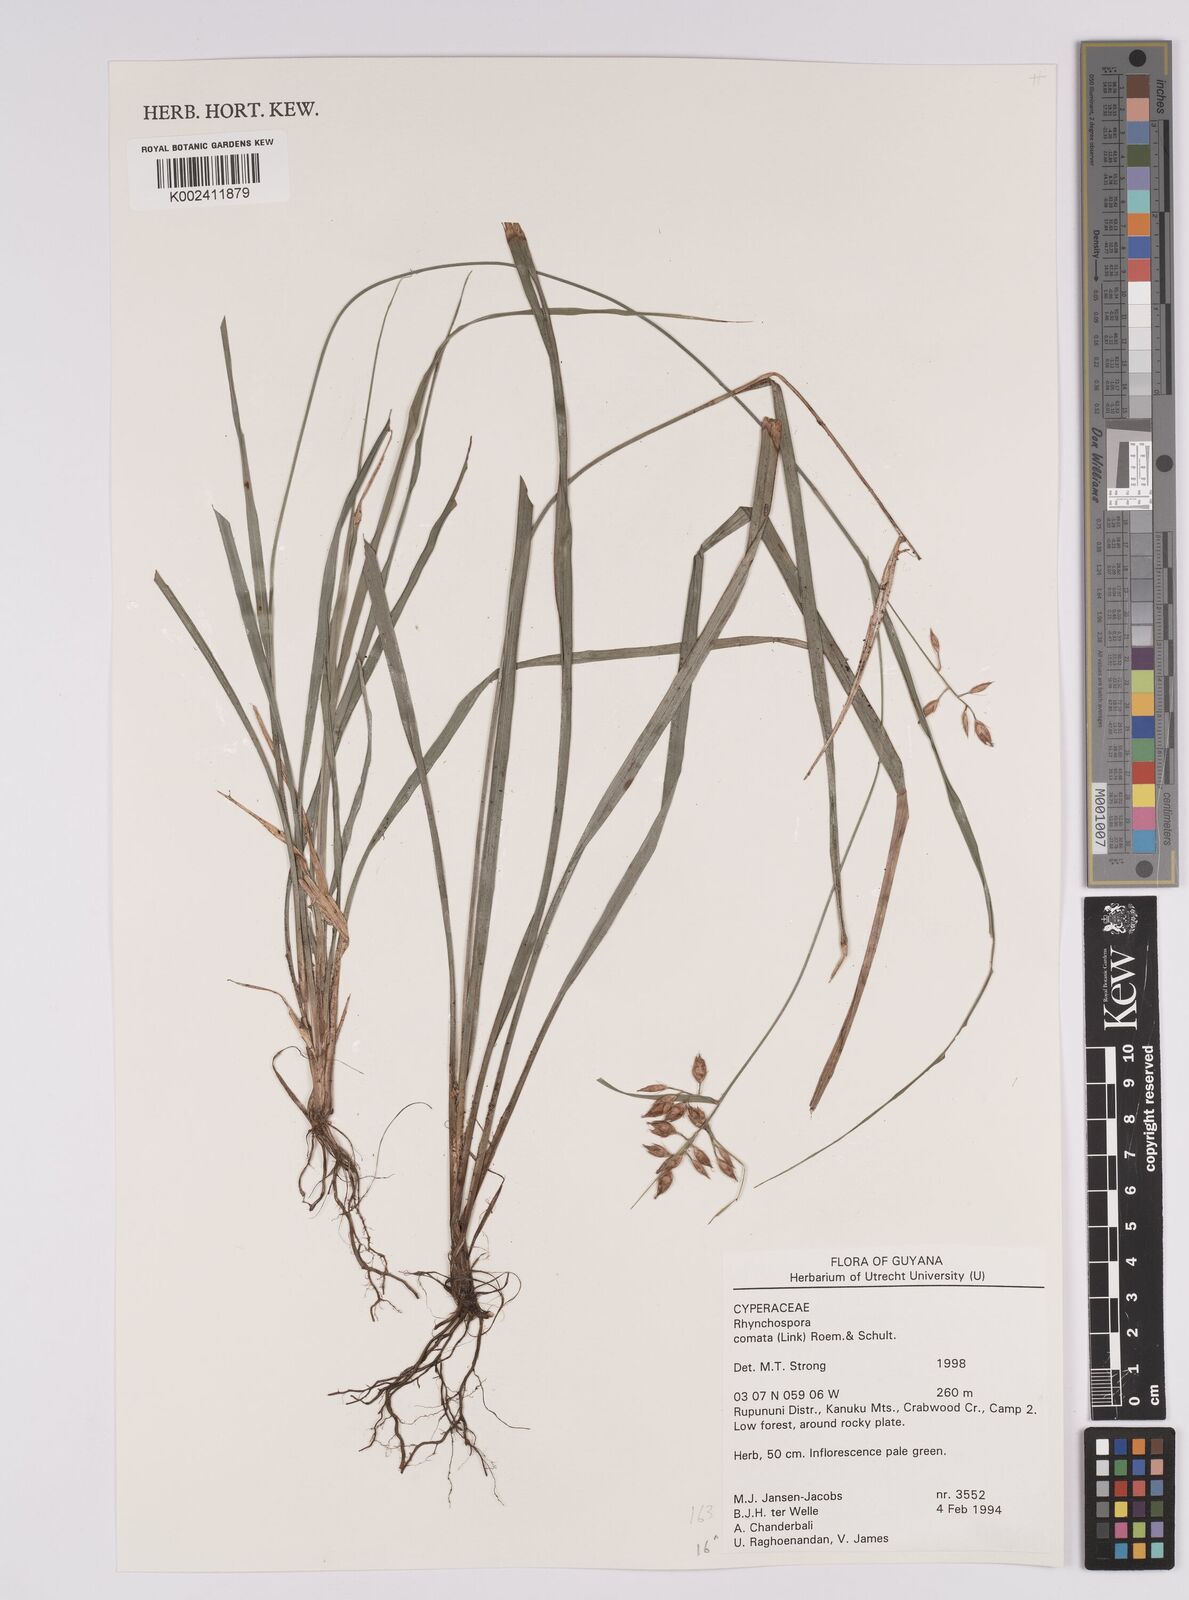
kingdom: Plantae
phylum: Tracheophyta
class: Liliopsida
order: Poales
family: Cyperaceae
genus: Rhynchospora
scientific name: Rhynchospora comata
